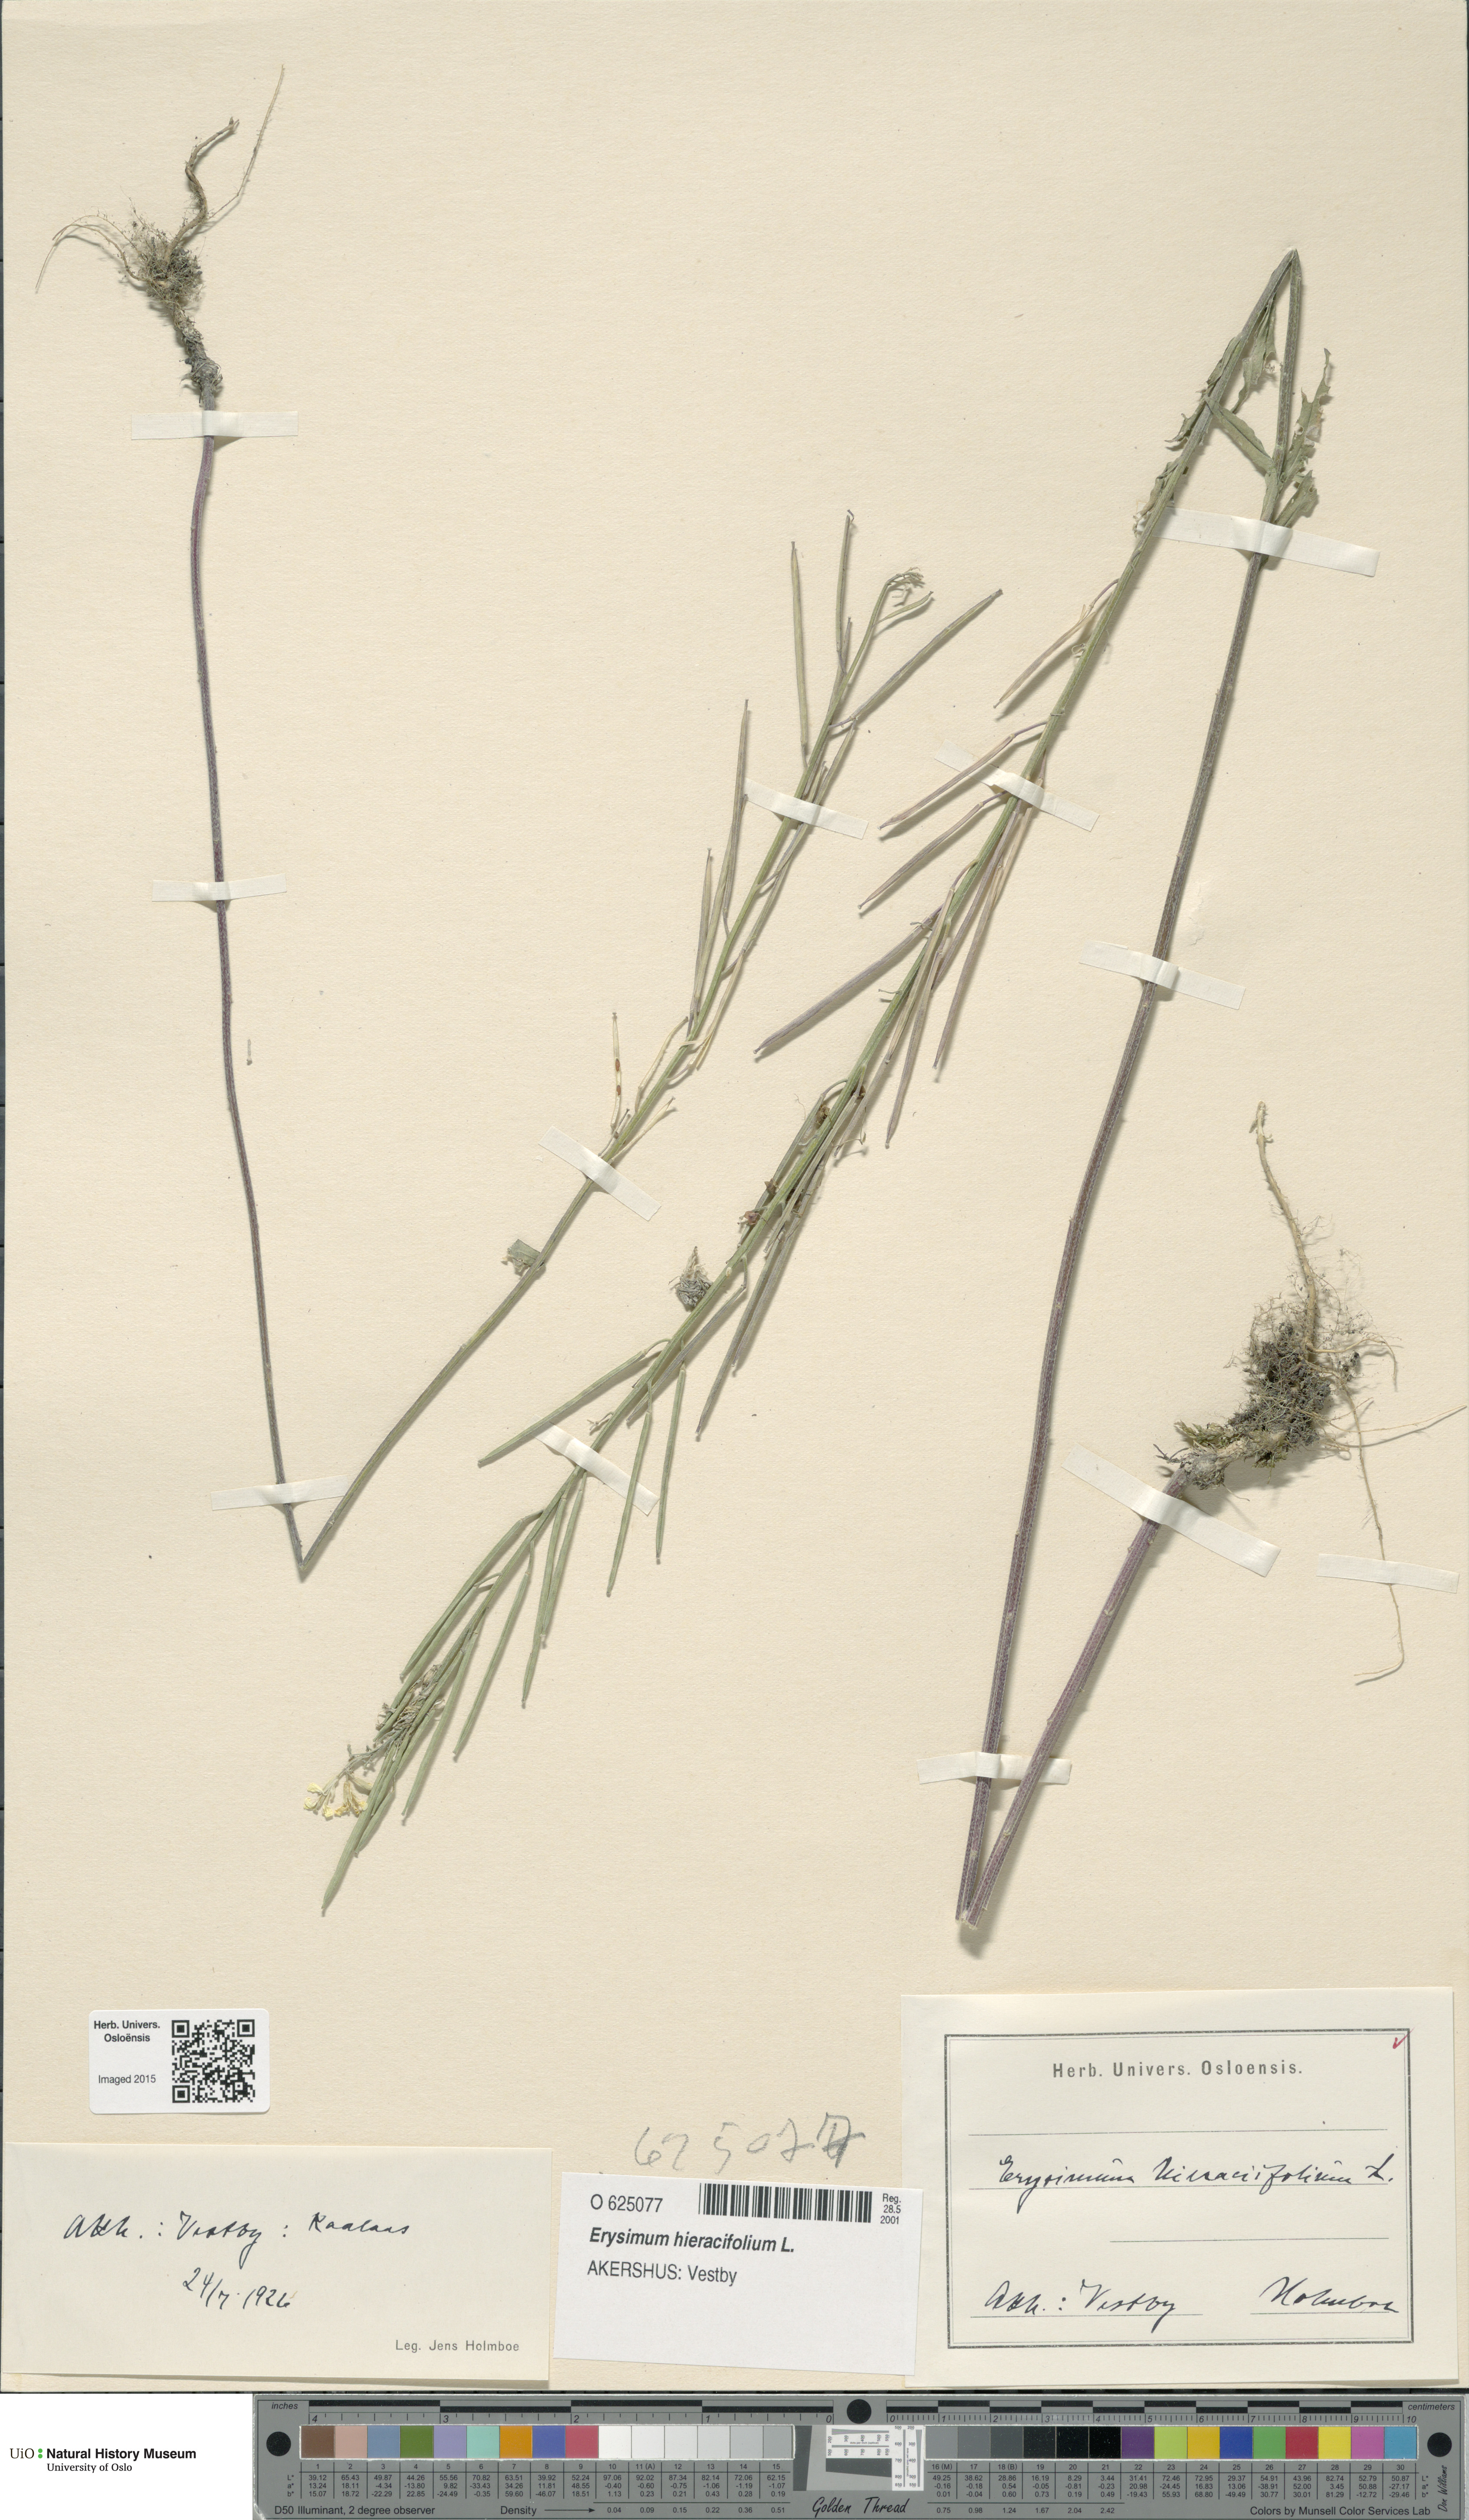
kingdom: Plantae
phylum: Tracheophyta
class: Magnoliopsida
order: Brassicales
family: Brassicaceae
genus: Erysimum
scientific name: Erysimum virgatum
